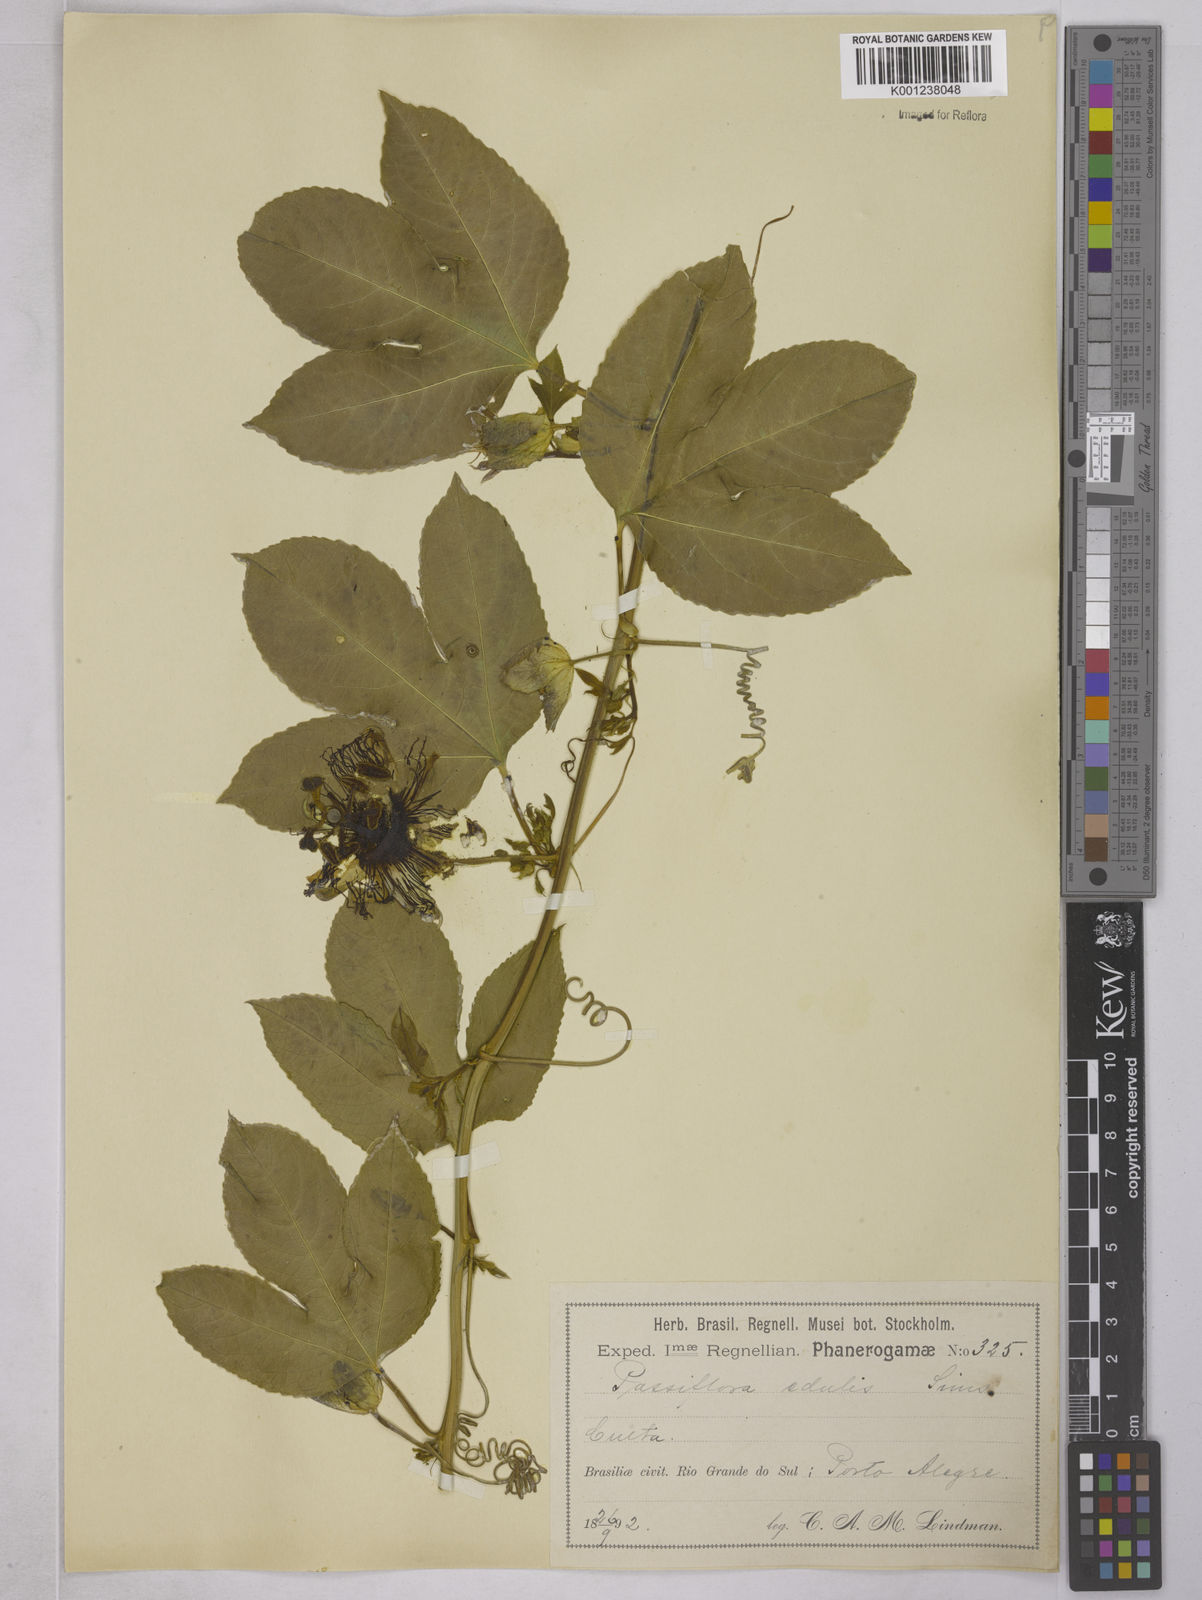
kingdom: Plantae
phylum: Tracheophyta
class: Magnoliopsida
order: Malpighiales
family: Passifloraceae
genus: Passiflora
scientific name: Passiflora edulis
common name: Purple granadilla
